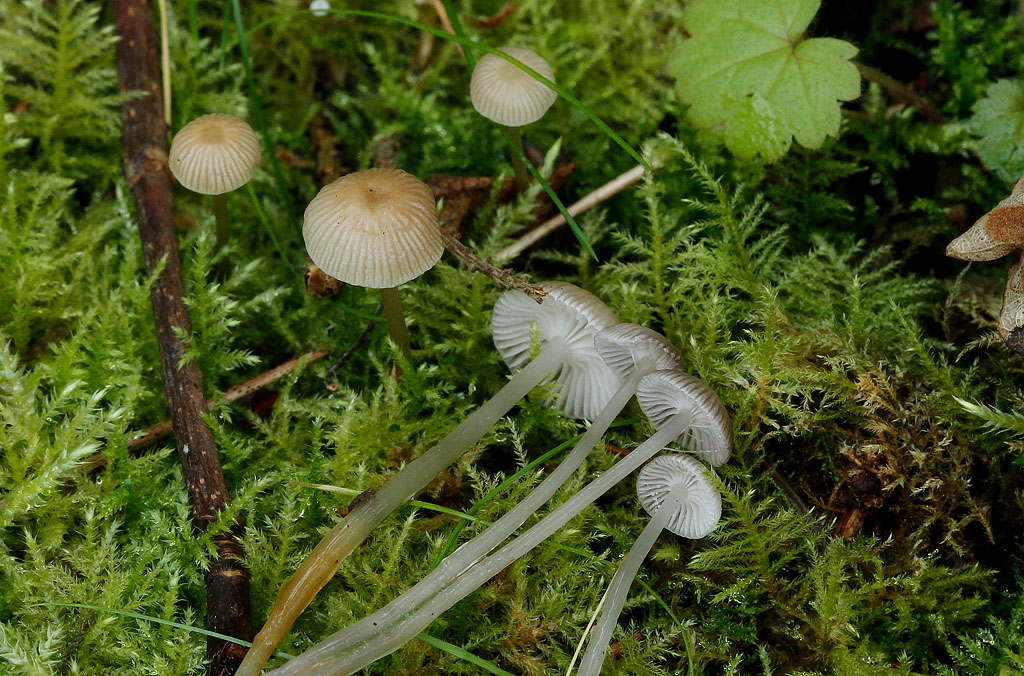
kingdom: Fungi
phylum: Basidiomycota
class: Agaricomycetes
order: Agaricales
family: Mycenaceae
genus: Mycena
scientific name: Mycena vulgaris
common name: klæbrig huesvamp
